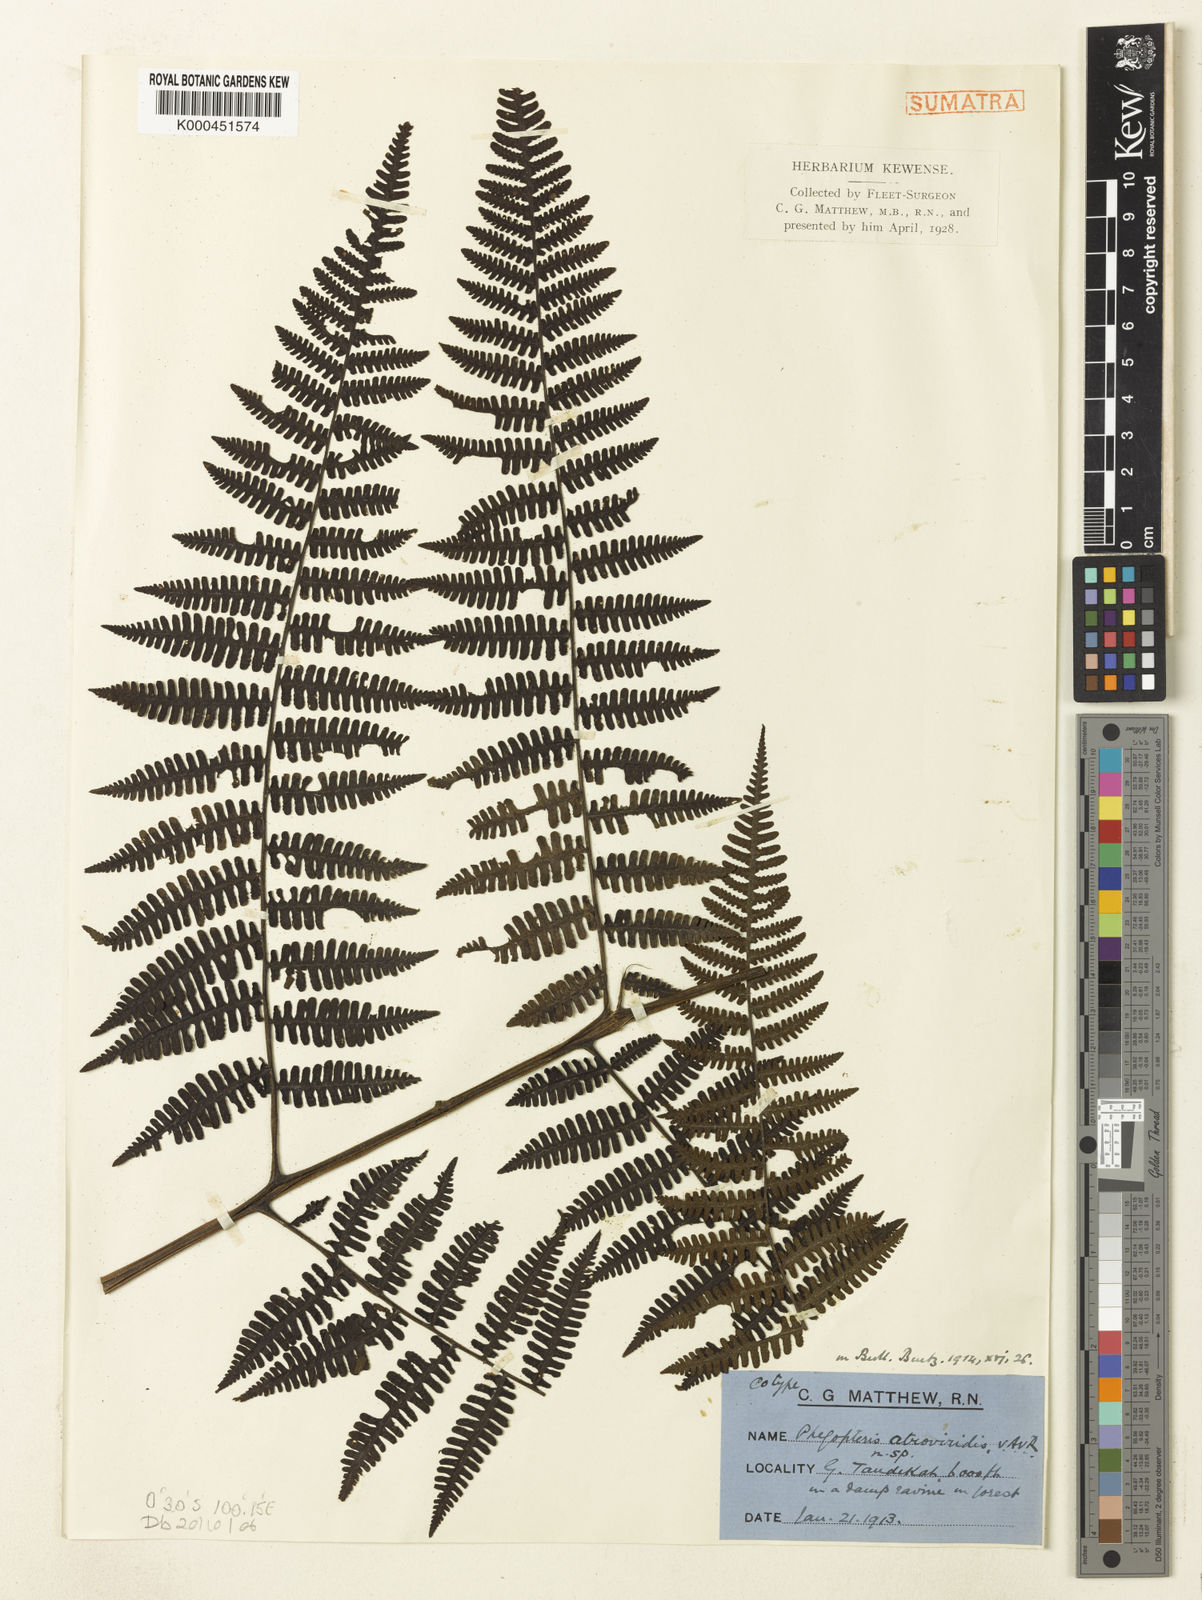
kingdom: Plantae
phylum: Tracheophyta
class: Polypodiopsida
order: Polypodiales
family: Athyriaceae
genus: Cornopteris
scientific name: Cornopteris atroviridis
